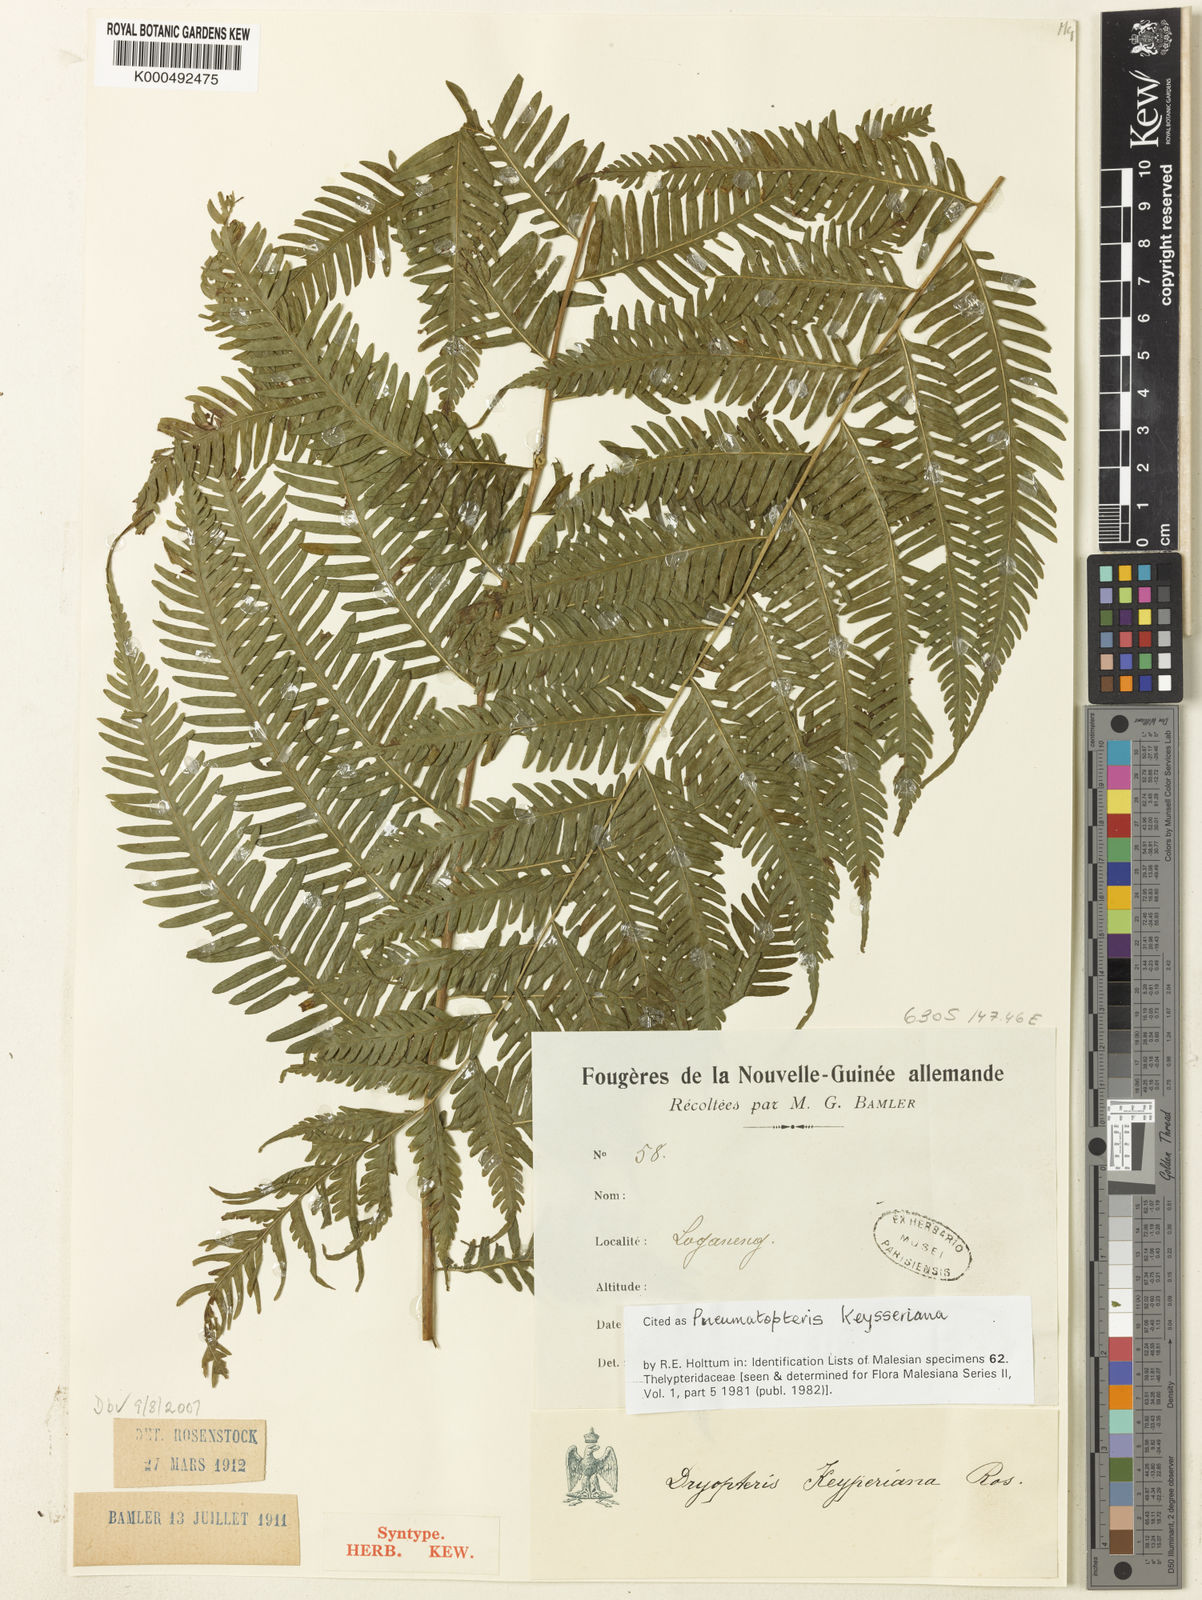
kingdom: Plantae
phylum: Tracheophyta
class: Polypodiopsida
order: Polypodiales
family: Thelypteridaceae
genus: Plesioneuron
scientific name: Plesioneuron keysserianum
